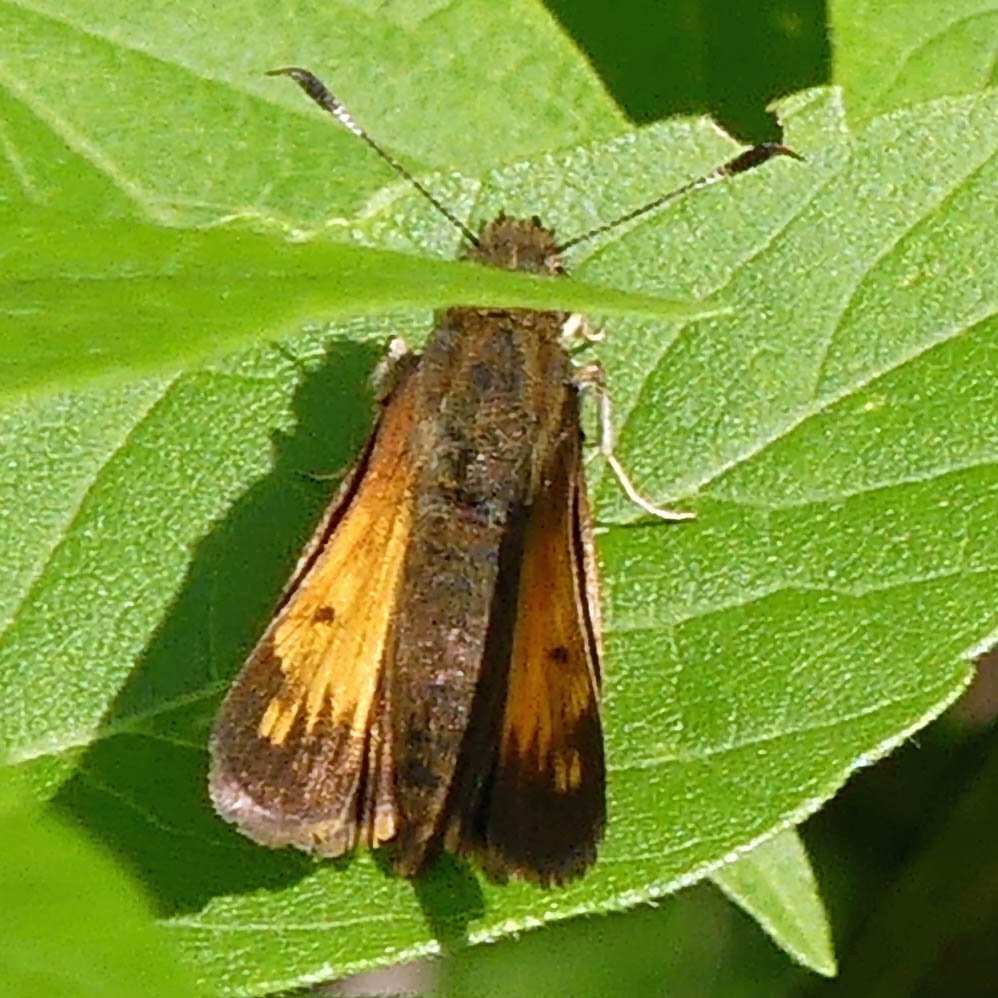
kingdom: Animalia
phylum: Arthropoda
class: Insecta
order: Lepidoptera
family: Hesperiidae
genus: Lon
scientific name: Lon hobomok
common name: Hobomok Skipper
